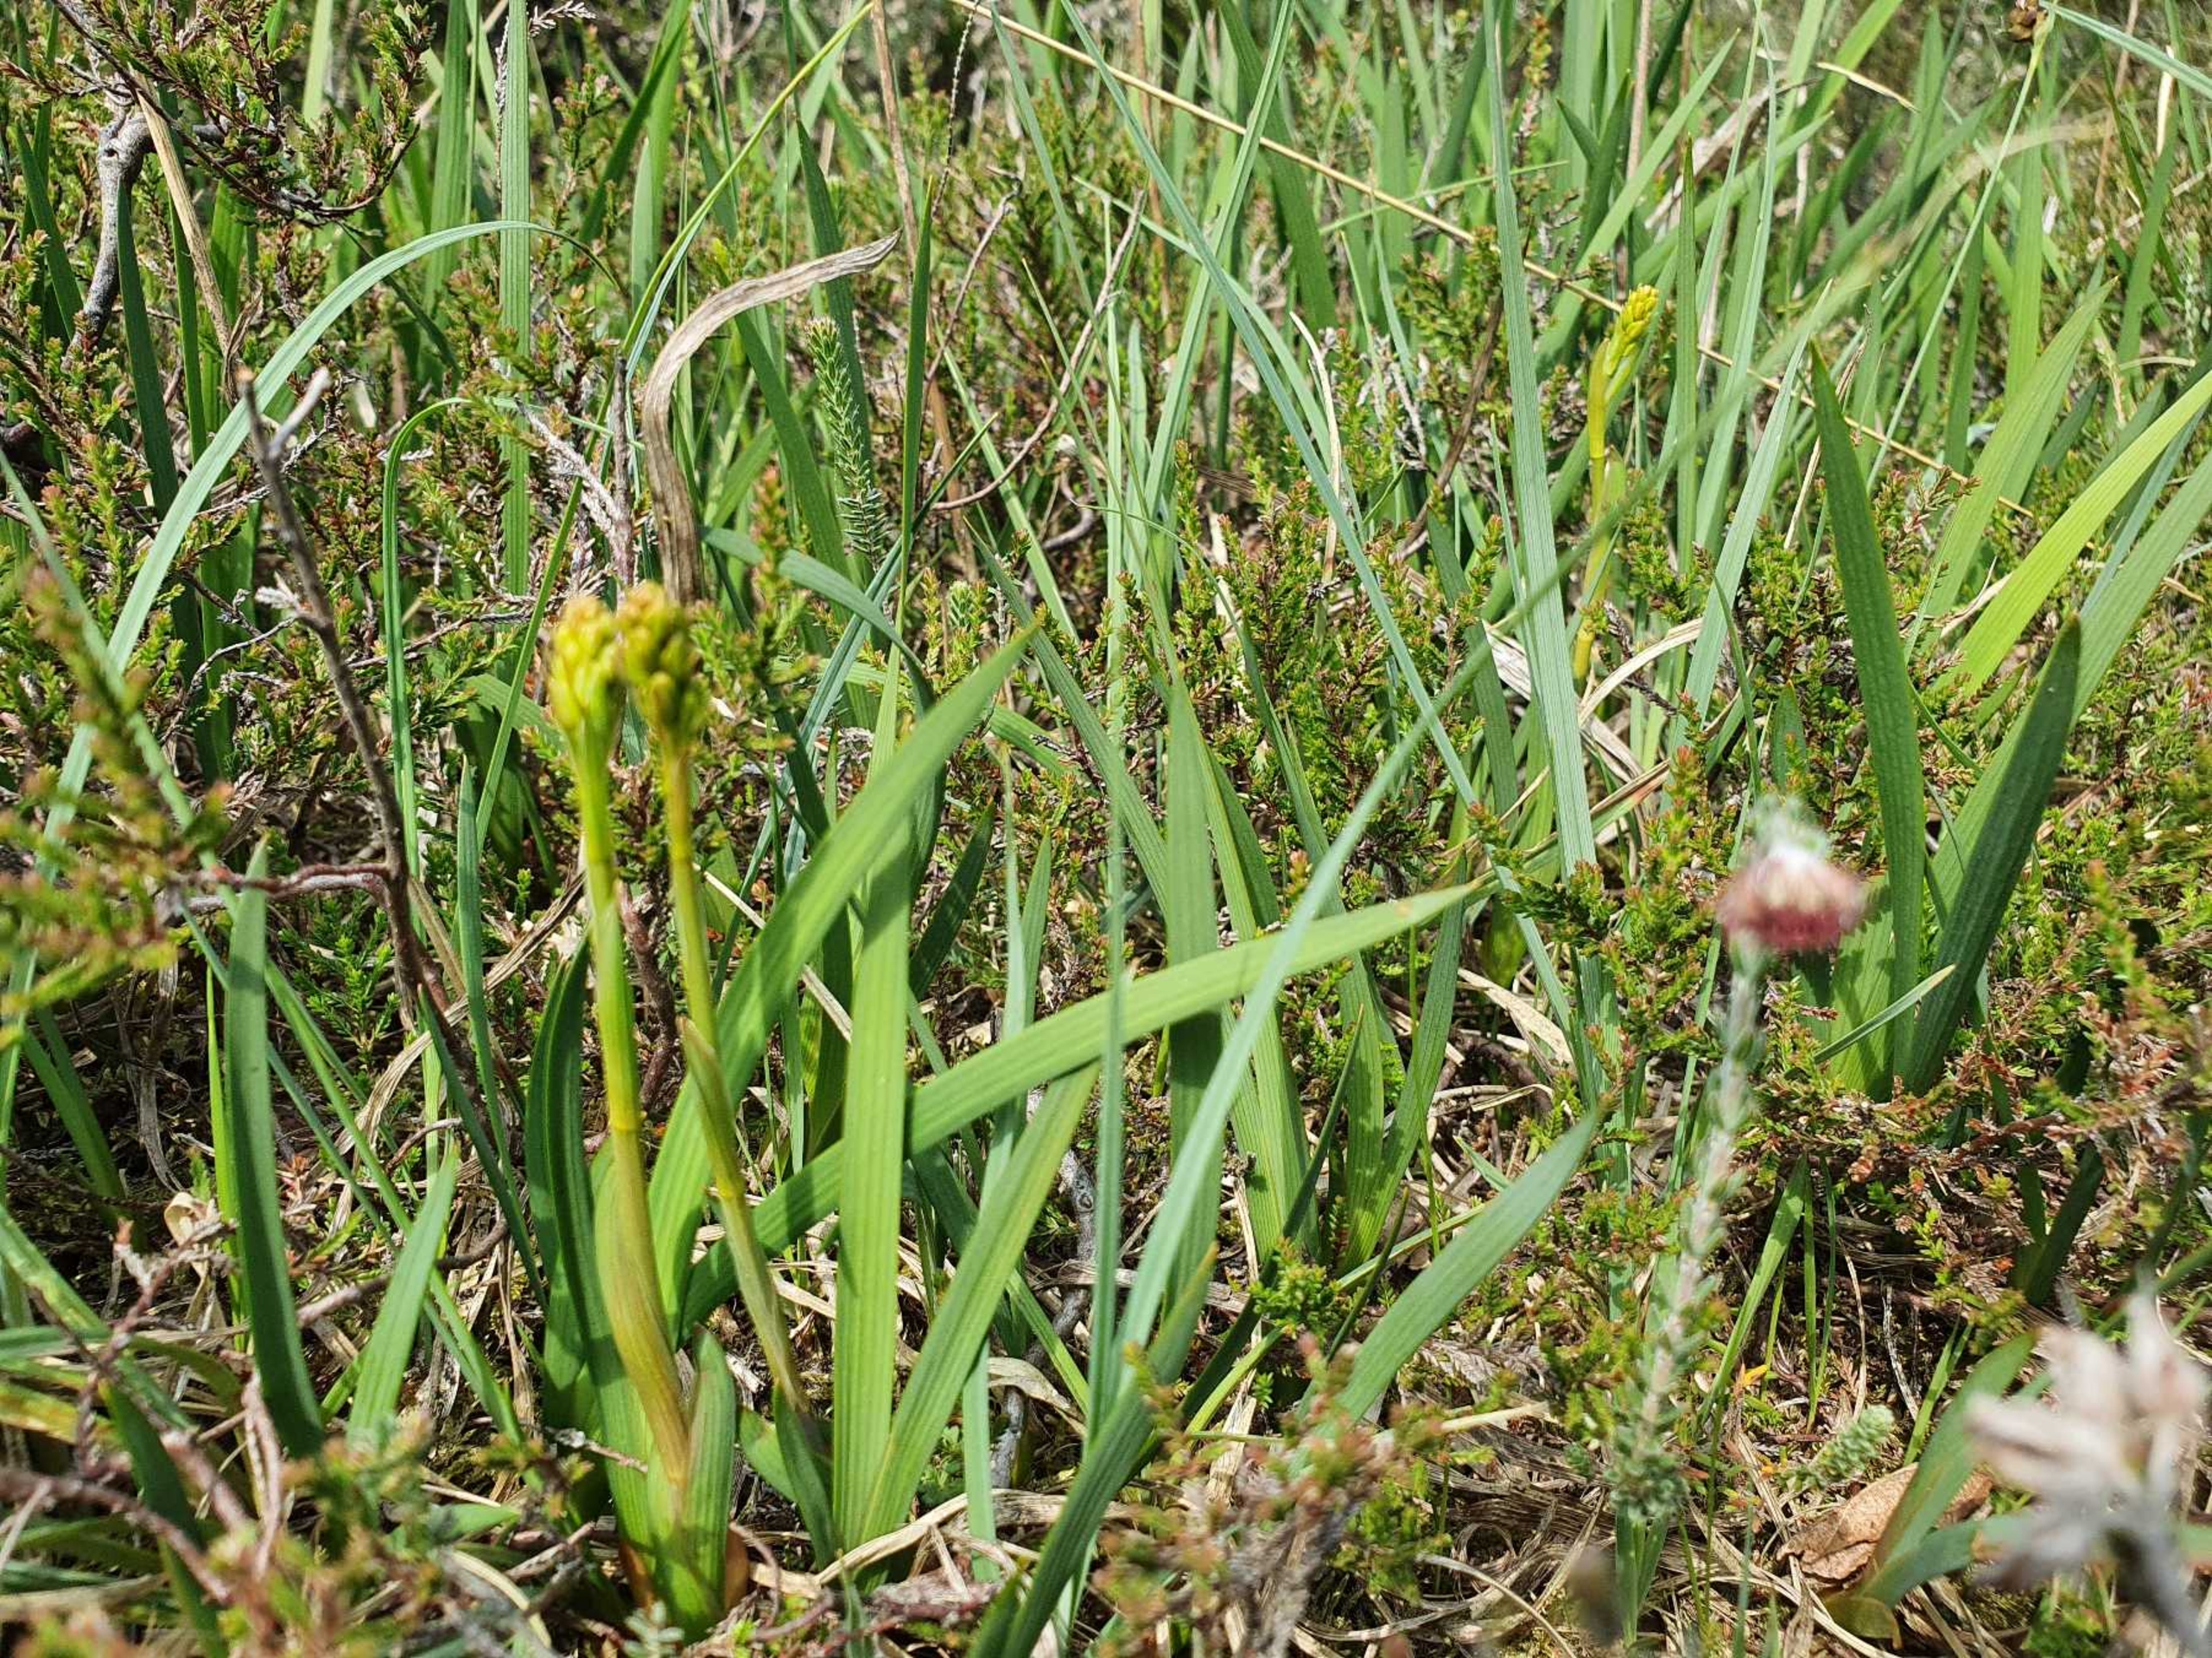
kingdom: Plantae
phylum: Tracheophyta
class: Liliopsida
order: Dioscoreales
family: Nartheciaceae
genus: Narthecium
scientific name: Narthecium ossifragum
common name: Benbræk
